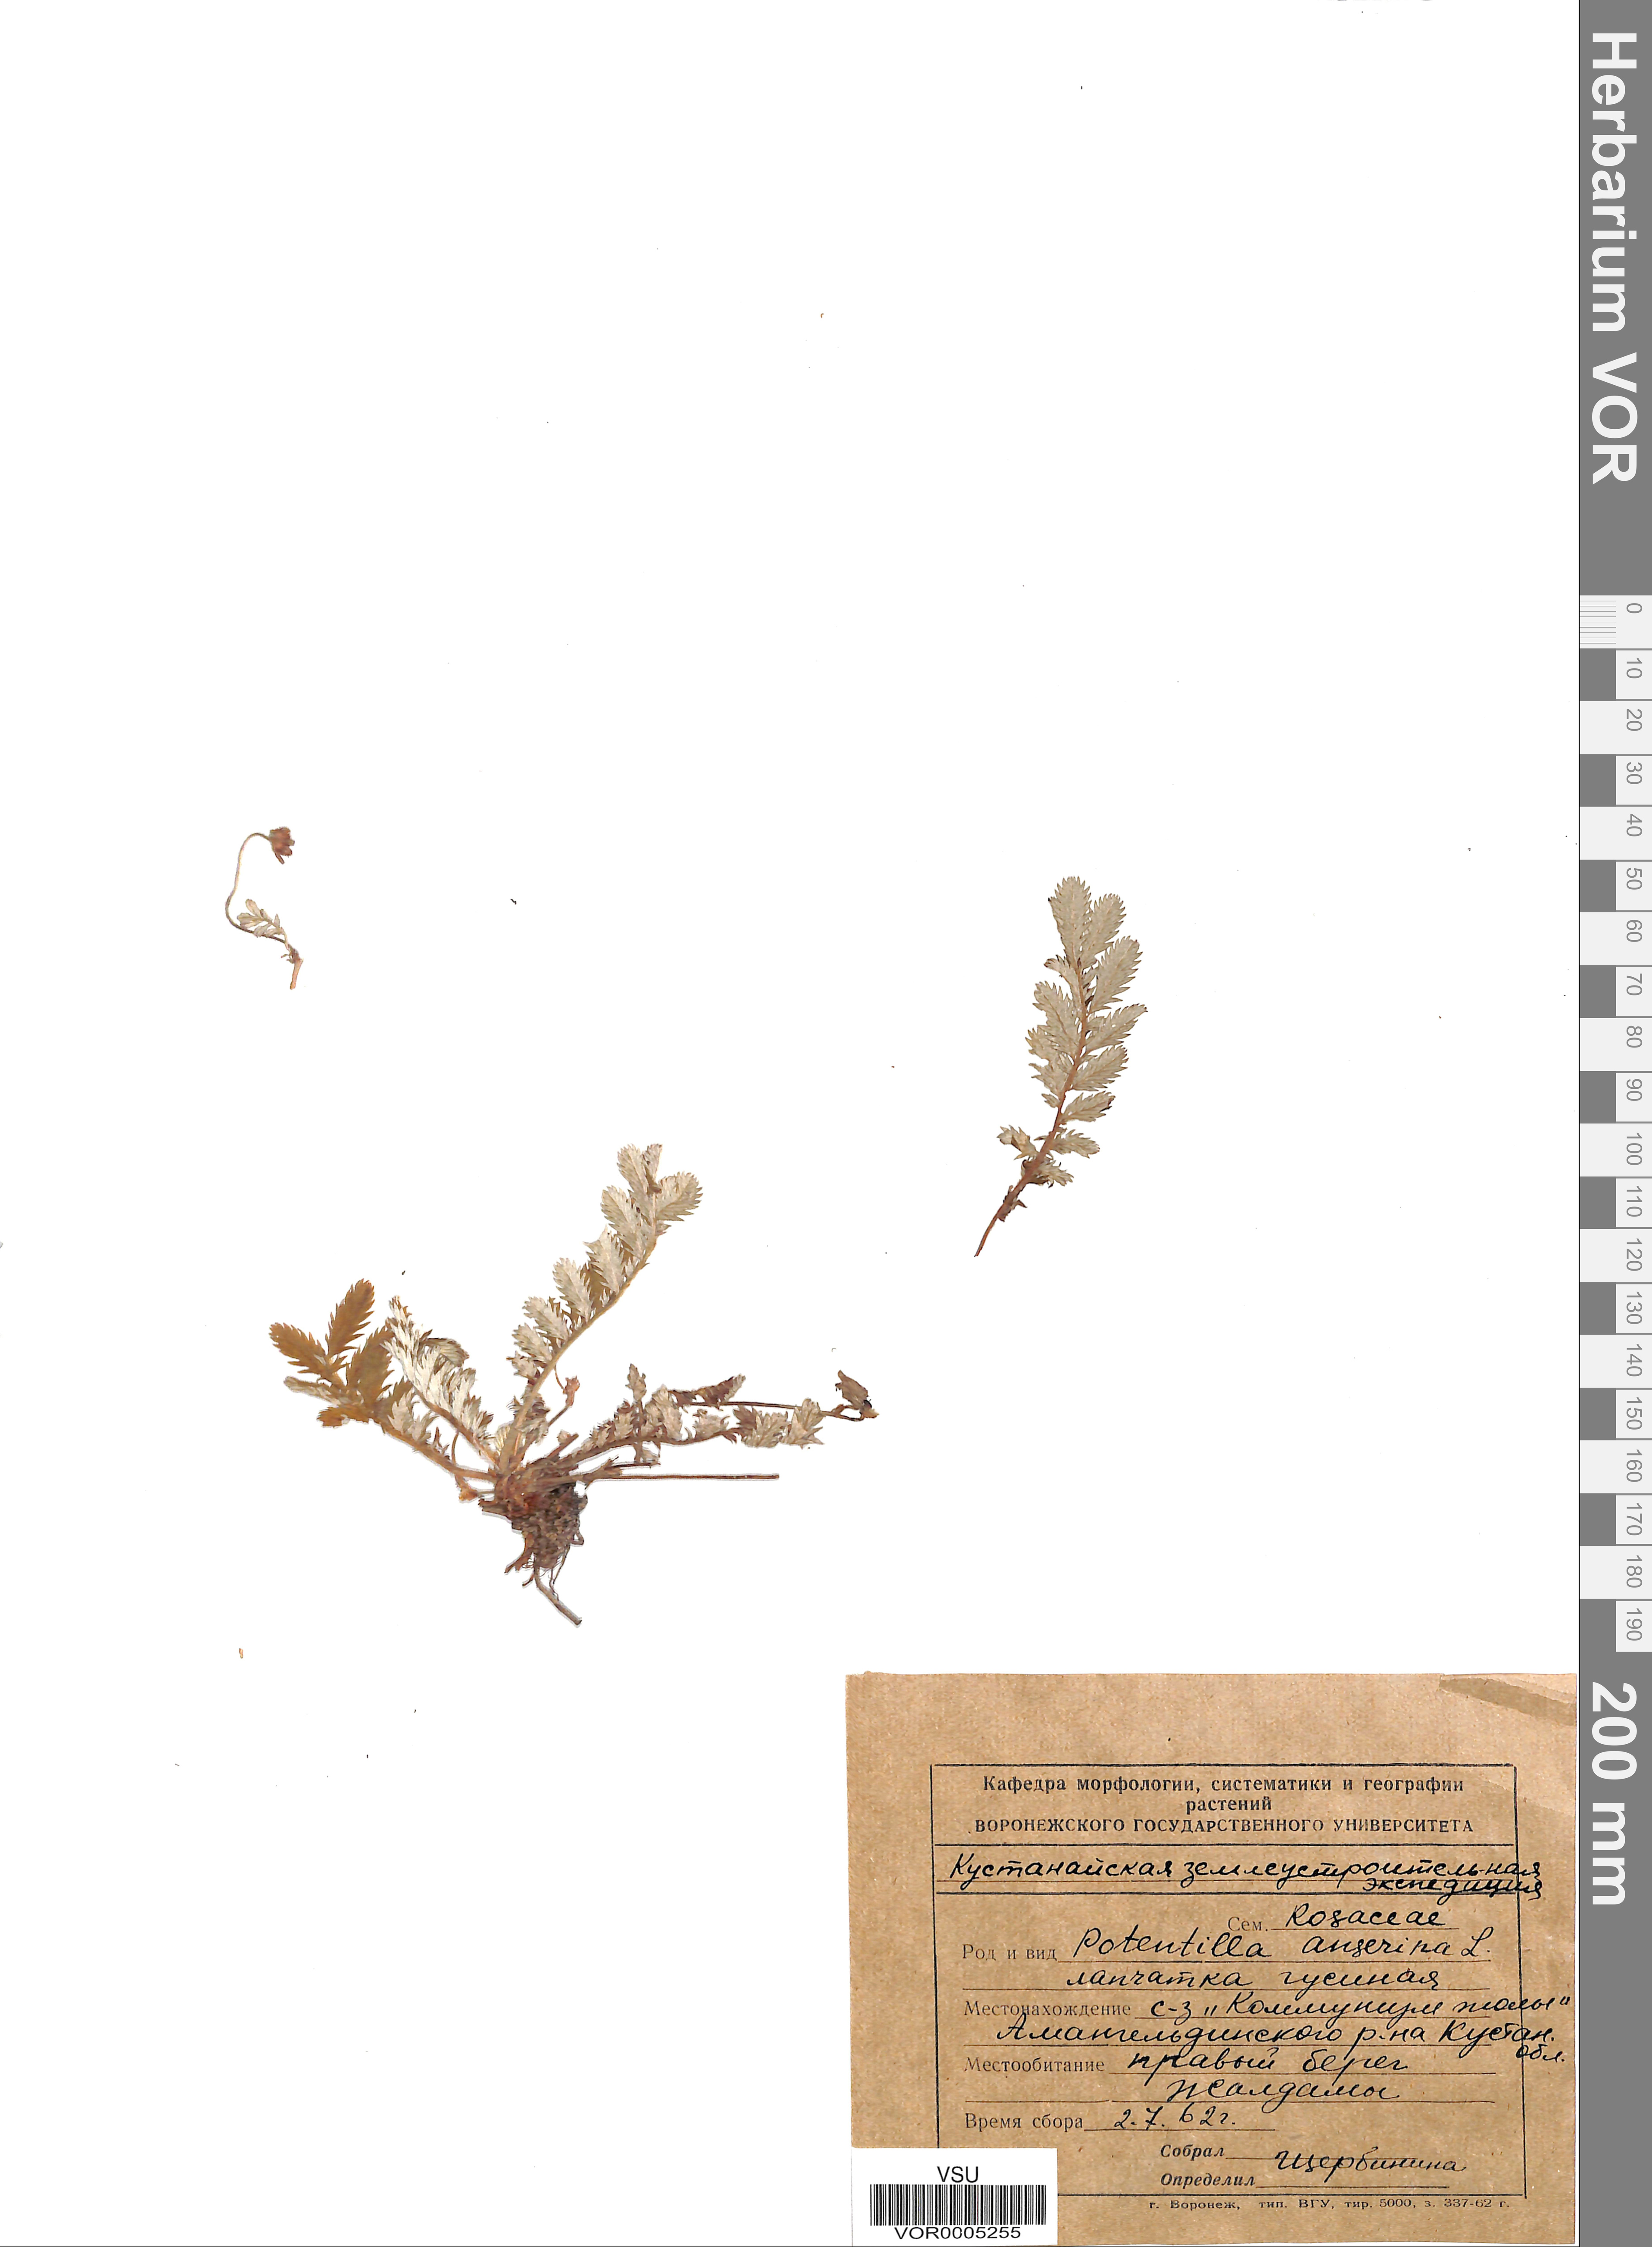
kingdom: Plantae
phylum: Tracheophyta
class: Magnoliopsida
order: Rosales
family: Rosaceae
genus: Argentina
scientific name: Argentina anserina
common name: Common silverweed
